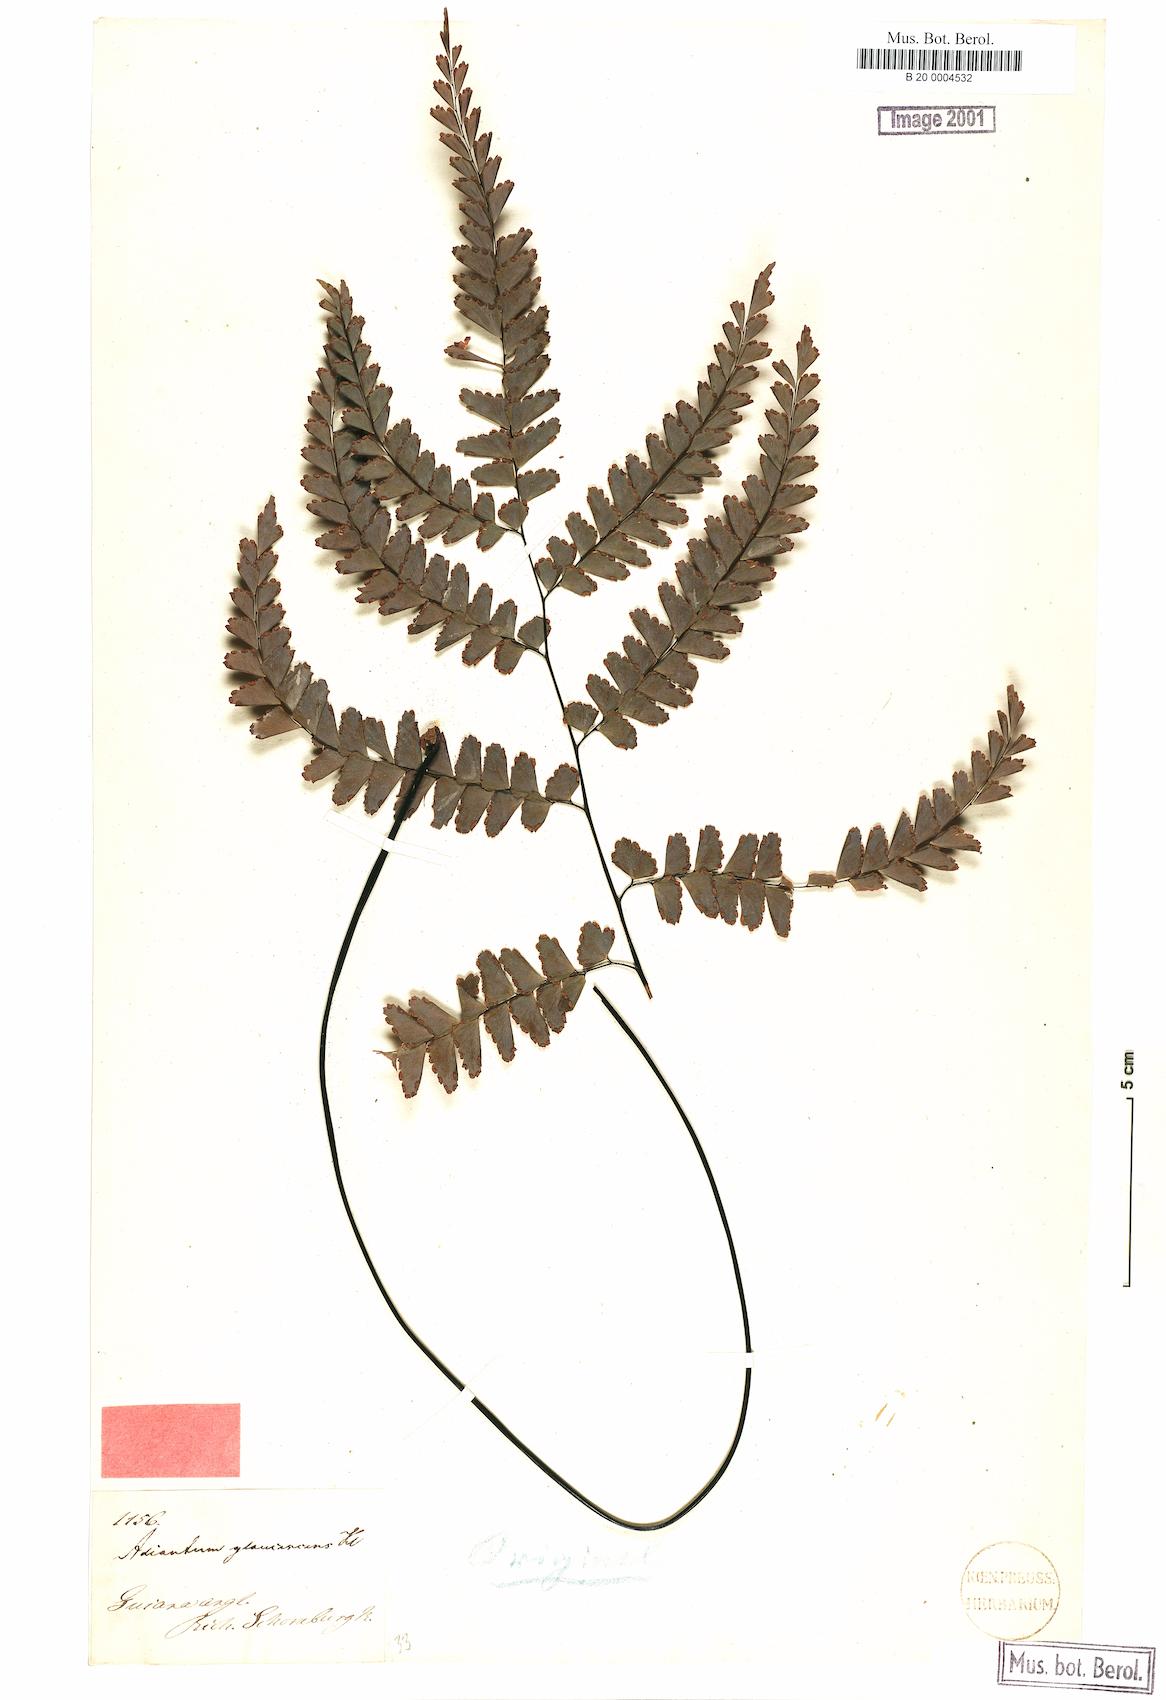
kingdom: Plantae
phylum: Tracheophyta
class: Polypodiopsida
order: Polypodiales
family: Pteridaceae
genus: Adiantum
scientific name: Adiantum glaucescens
